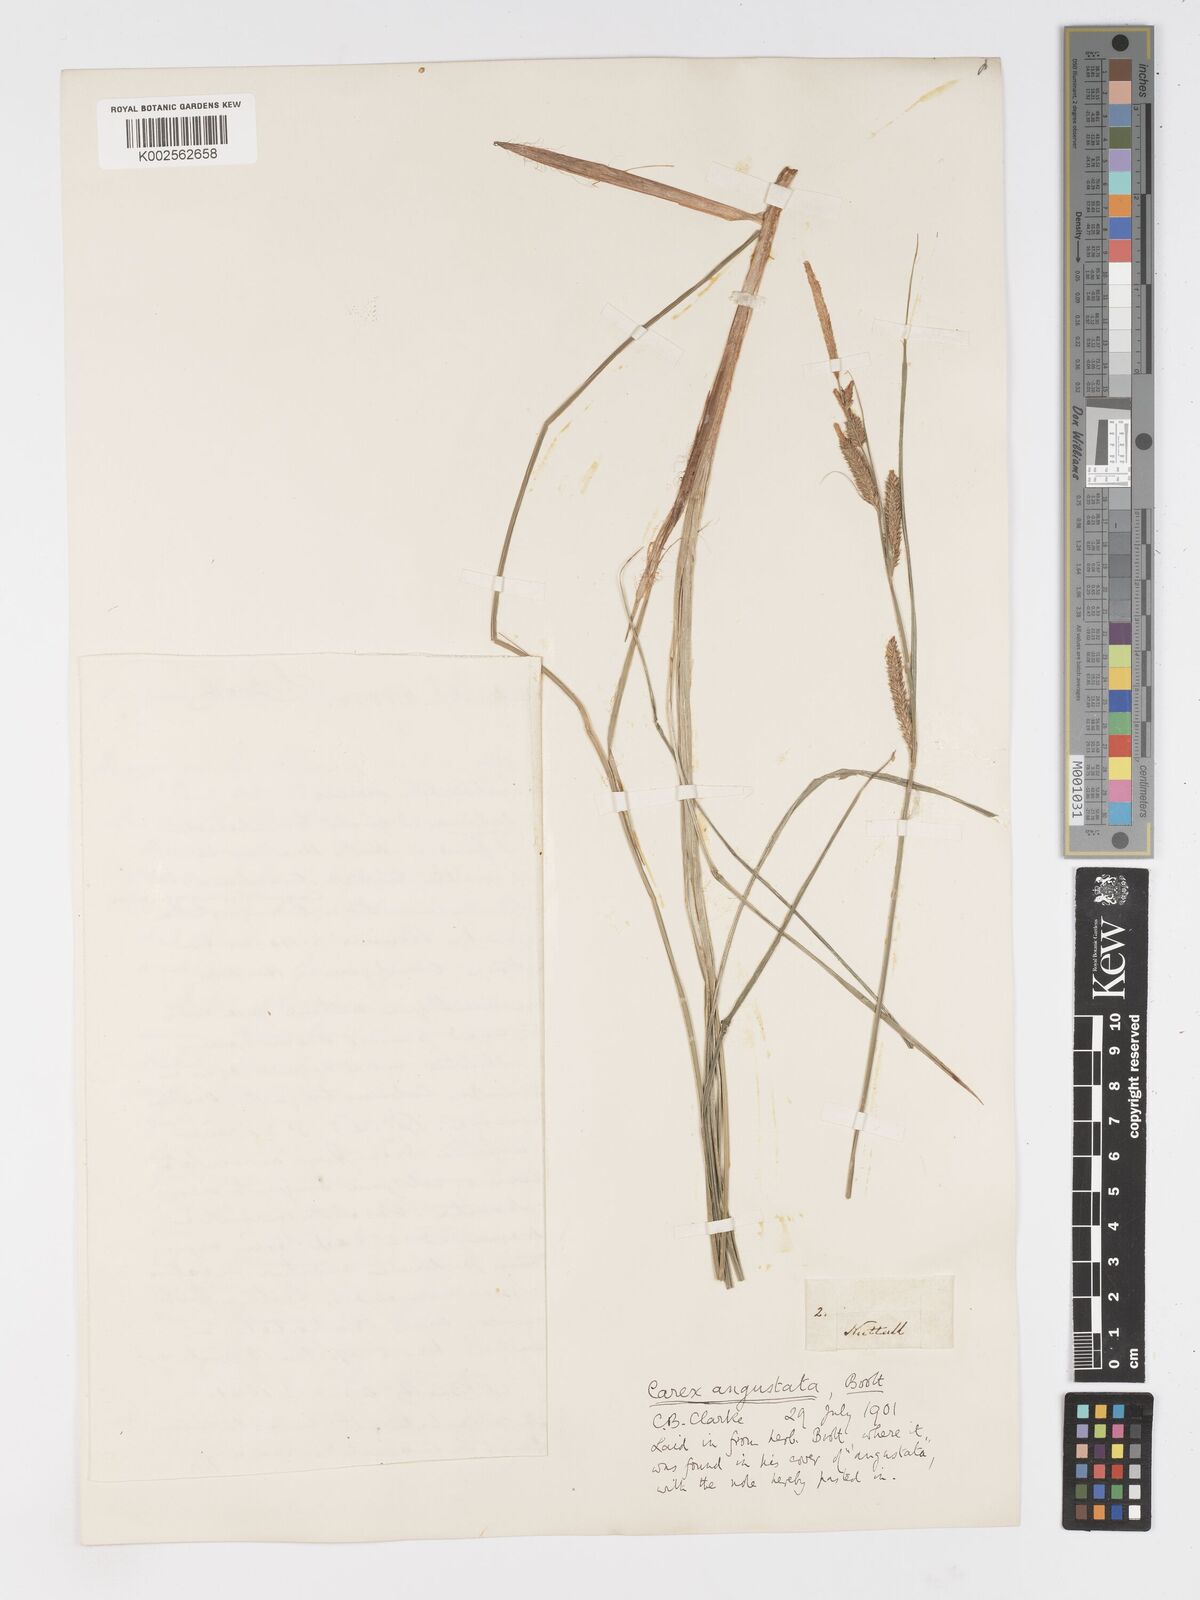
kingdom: Plantae
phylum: Tracheophyta
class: Liliopsida
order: Poales
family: Cyperaceae
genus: Carex
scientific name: Carex stricta
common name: Hummock sedge
